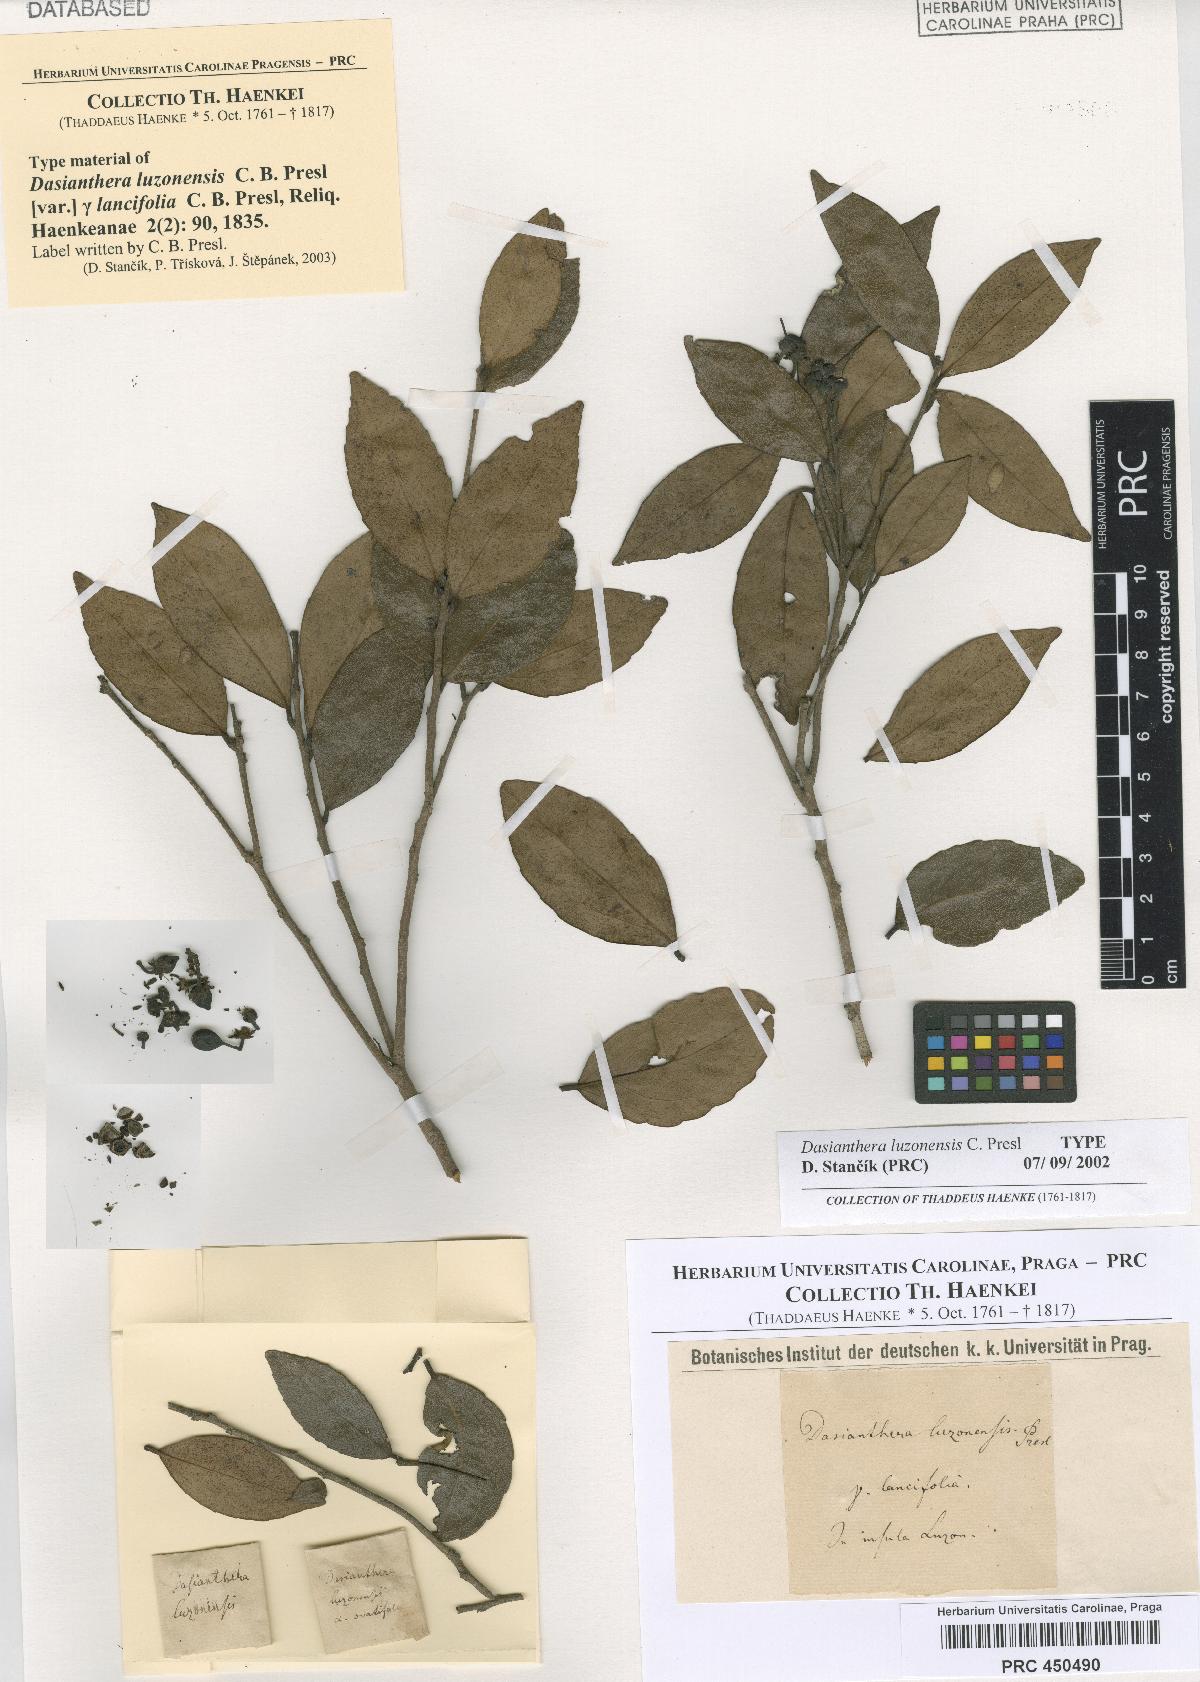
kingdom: Plantae
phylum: Tracheophyta
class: Magnoliopsida
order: Malpighiales
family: Salicaceae
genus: Scolopia
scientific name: Scolopia luzonensis
